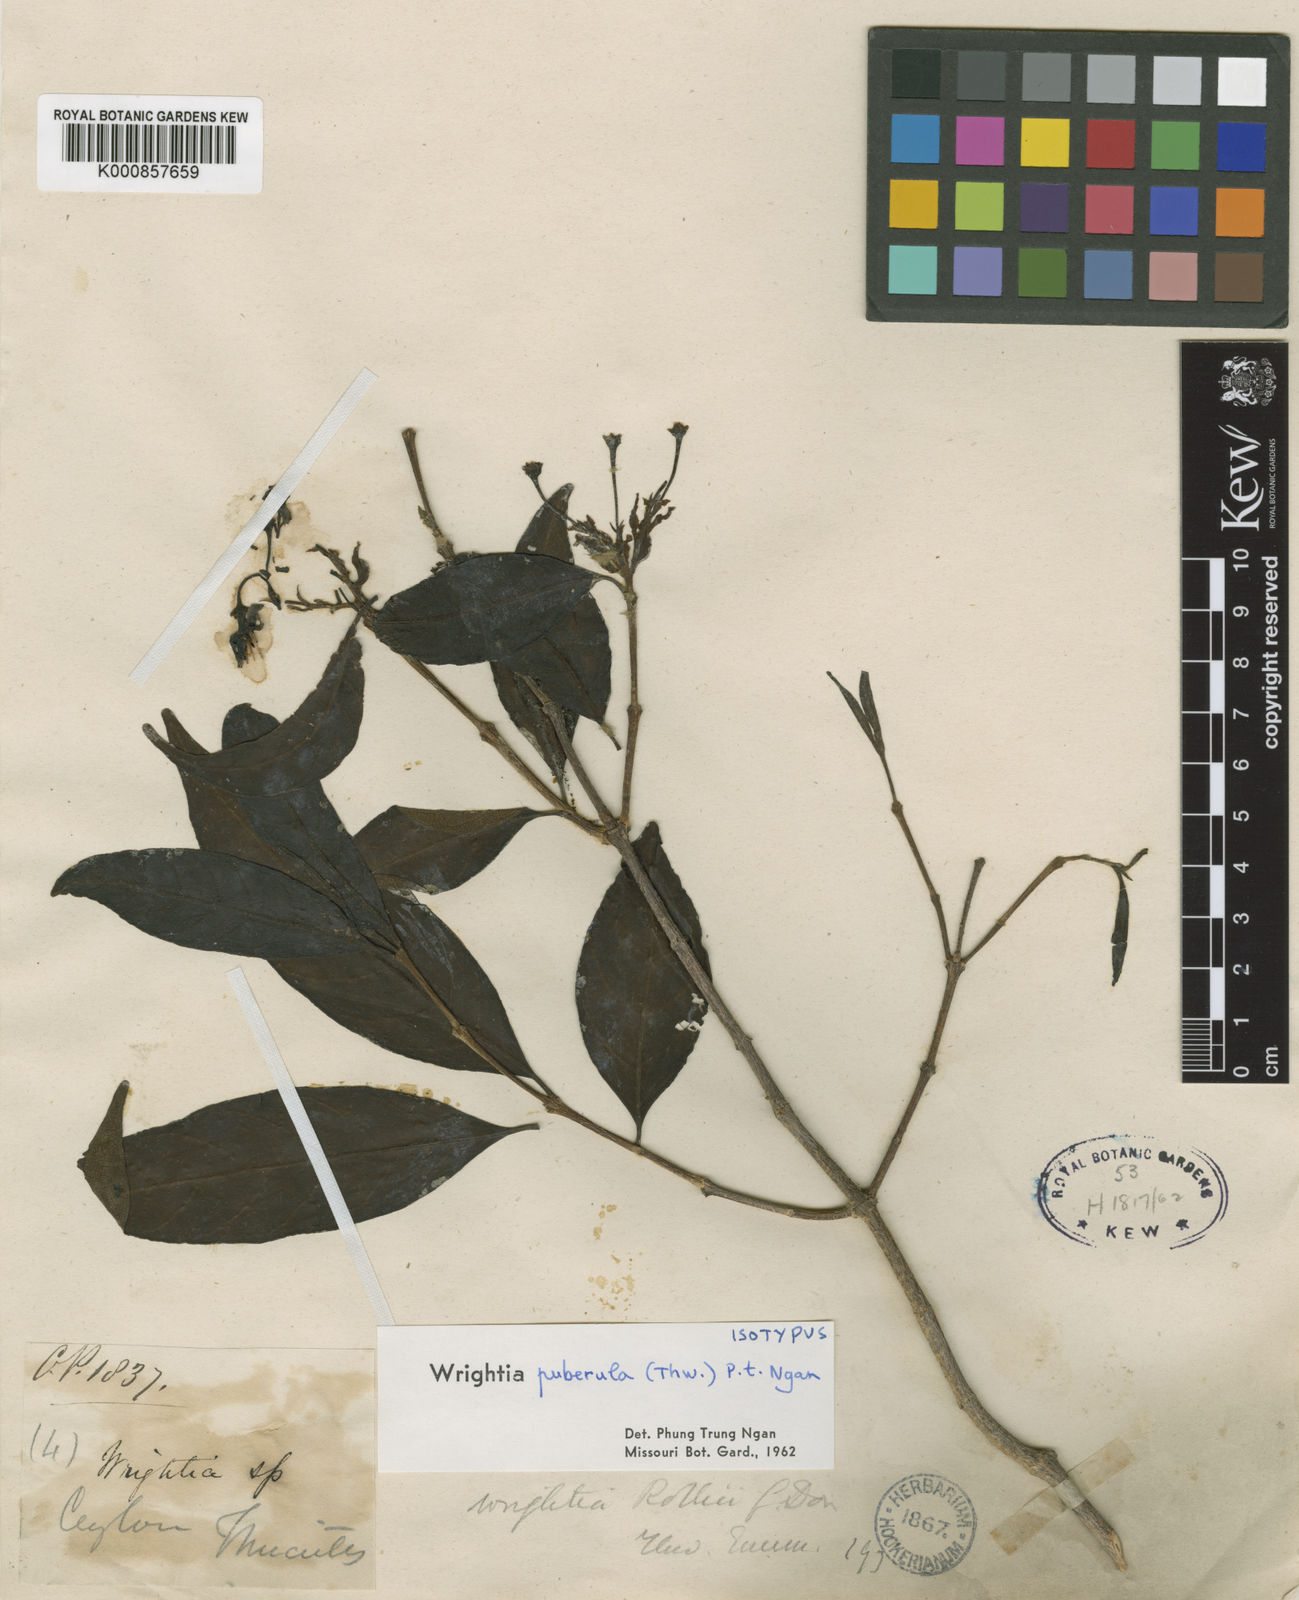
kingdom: Plantae
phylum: Tracheophyta
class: Magnoliopsida
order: Gentianales
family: Apocynaceae
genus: Wrightia
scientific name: Wrightia puberula
